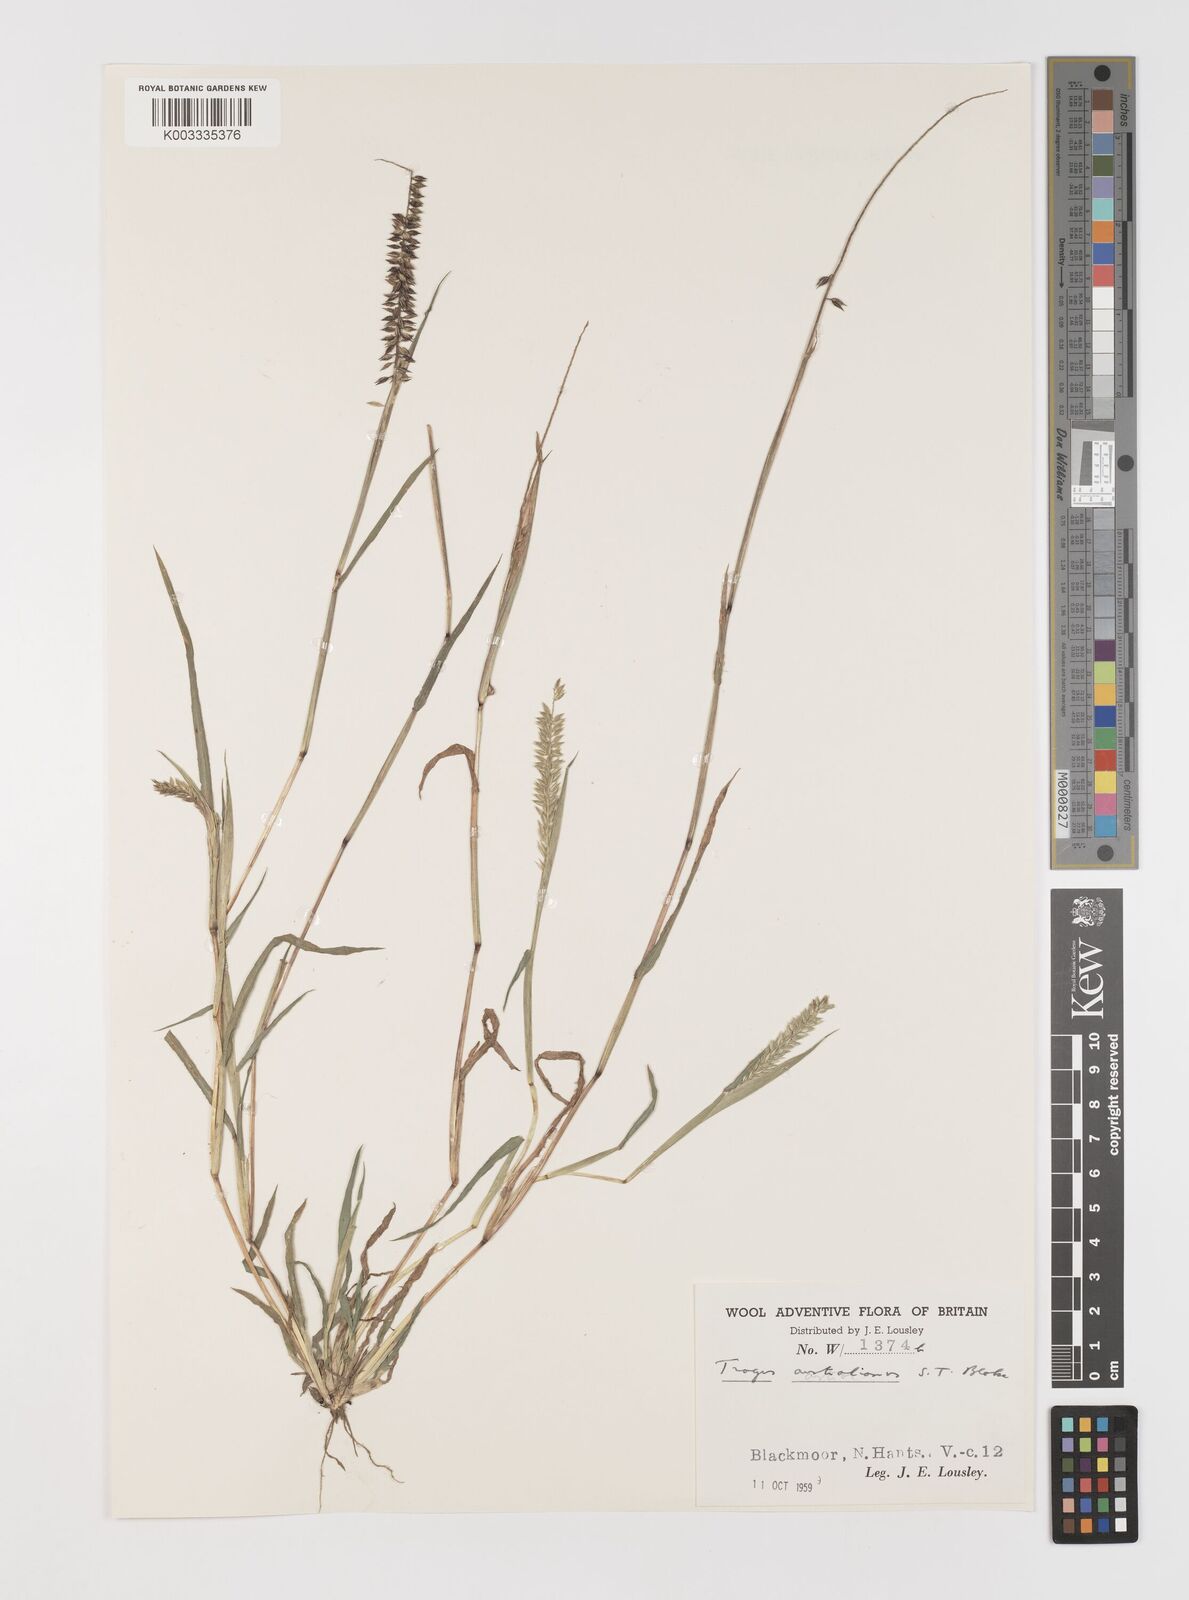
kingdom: Plantae
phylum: Tracheophyta
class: Liliopsida
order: Poales
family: Poaceae
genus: Tragus
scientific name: Tragus australianus
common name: Australian bur-grass
